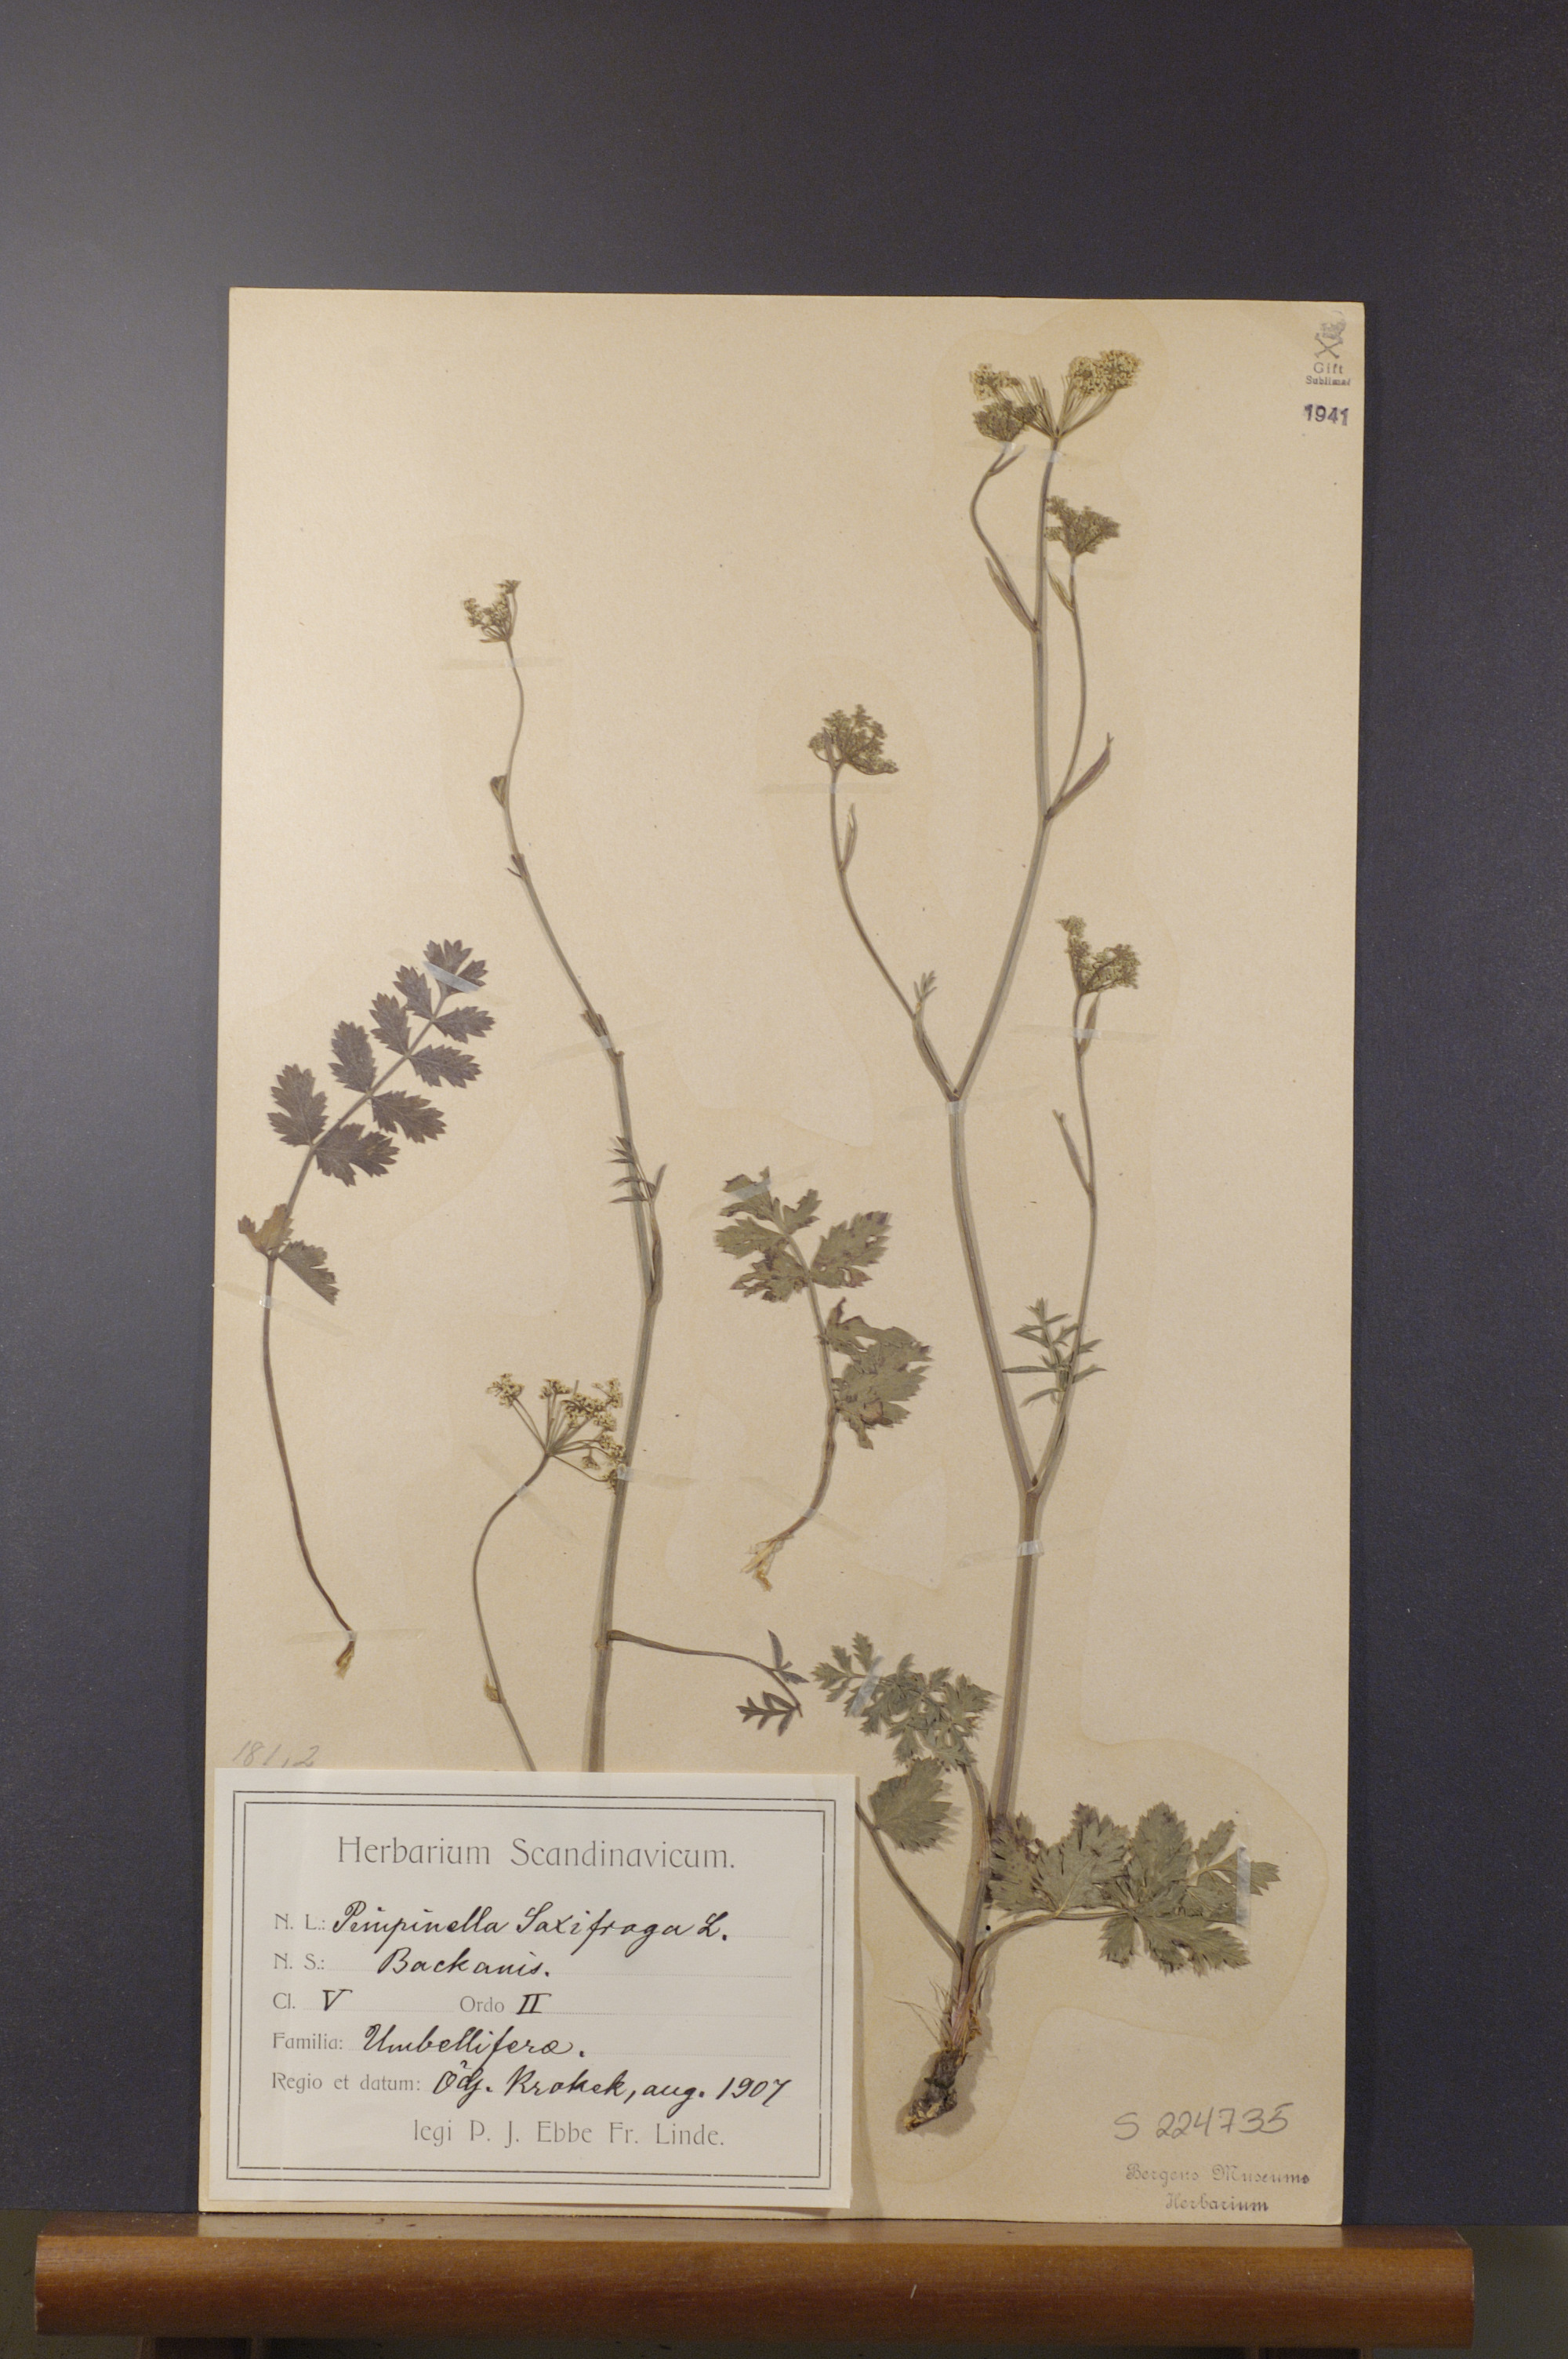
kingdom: Plantae
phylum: Tracheophyta
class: Magnoliopsida
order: Apiales
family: Apiaceae
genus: Pimpinella
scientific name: Pimpinella saxifraga
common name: Burnet-saxifrage
